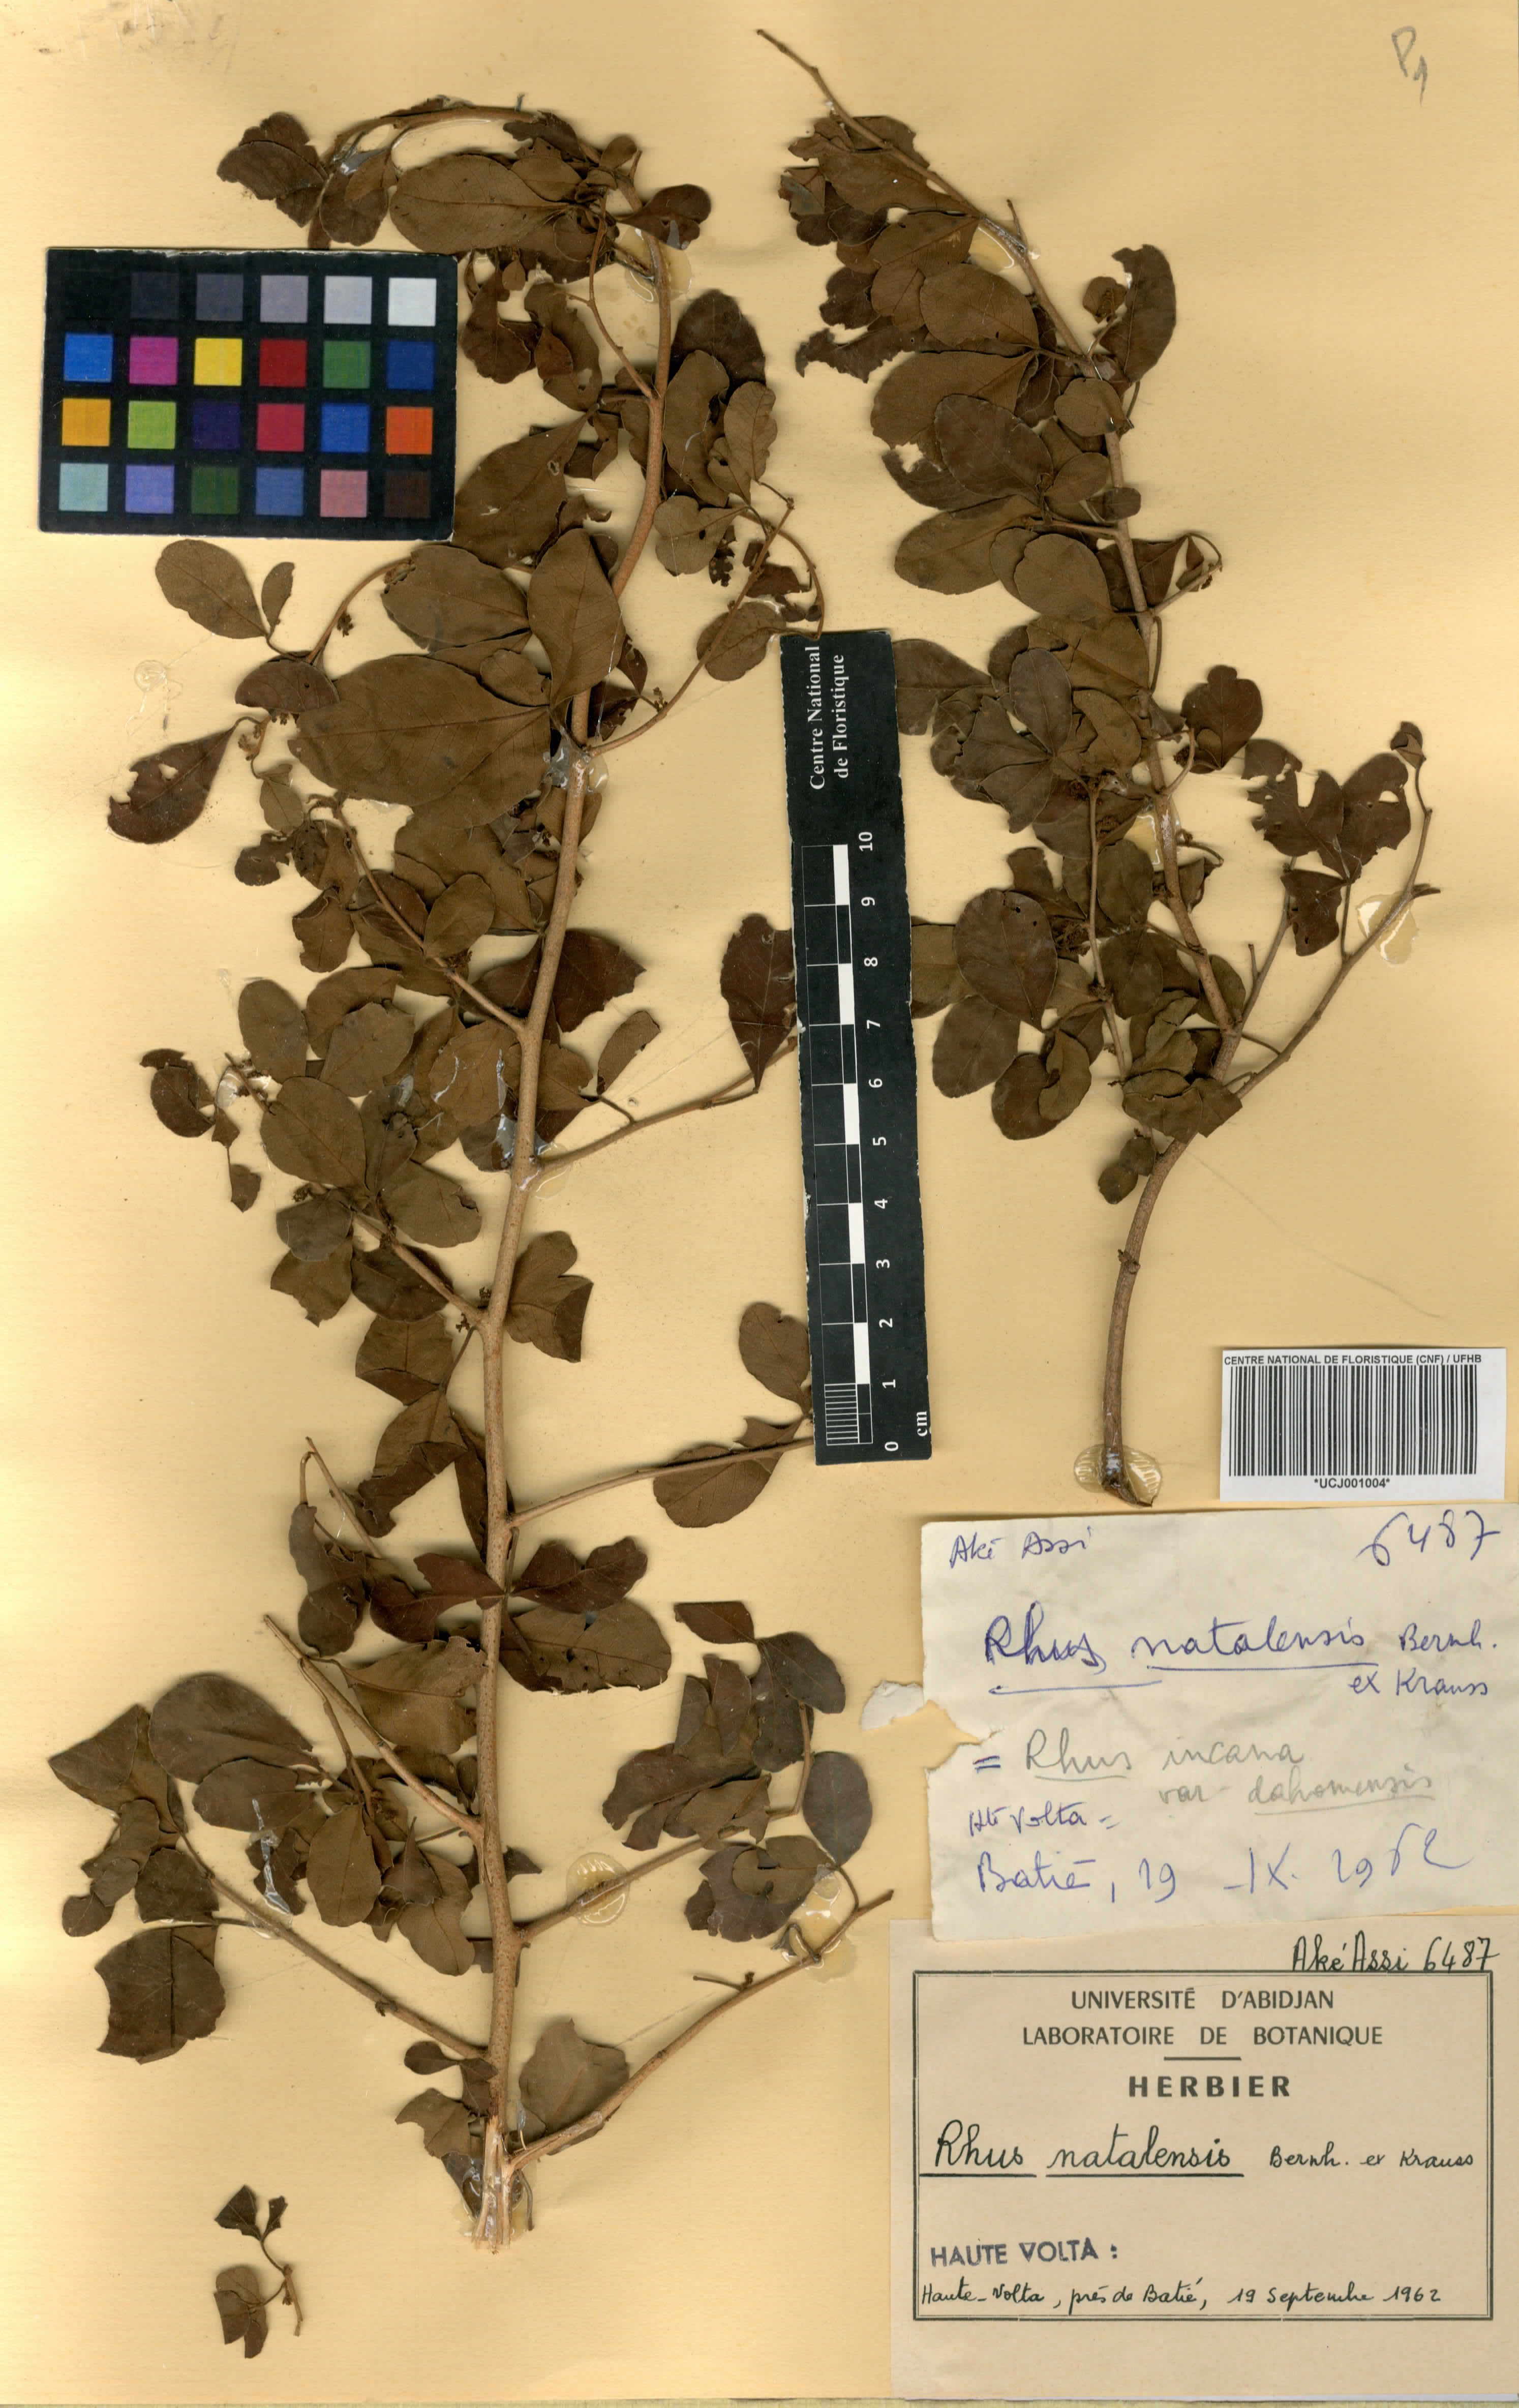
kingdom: Plantae
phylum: Tracheophyta
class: Magnoliopsida
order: Sapindales
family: Anacardiaceae
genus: Searsia
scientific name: Searsia natalensis
